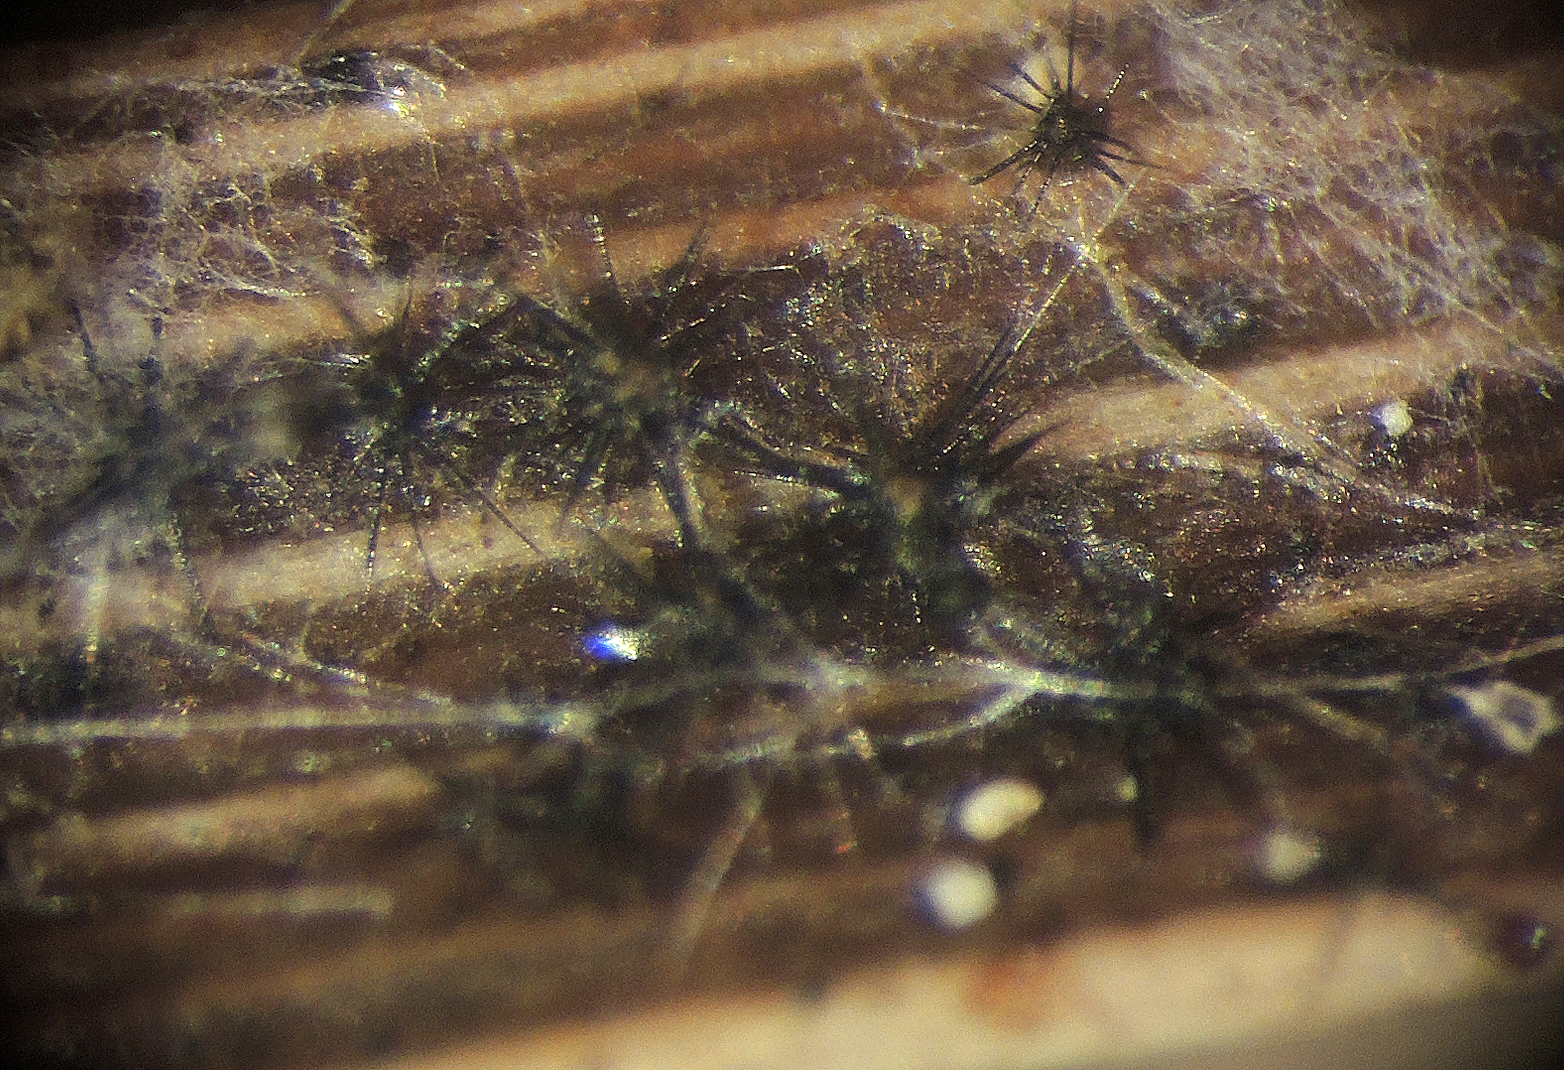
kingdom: Fungi
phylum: Ascomycota
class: Dothideomycetes
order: Tubeufiales
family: Tubeufiaceae
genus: Acanthophiobolus
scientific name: Acanthophiobolus helicosporus
